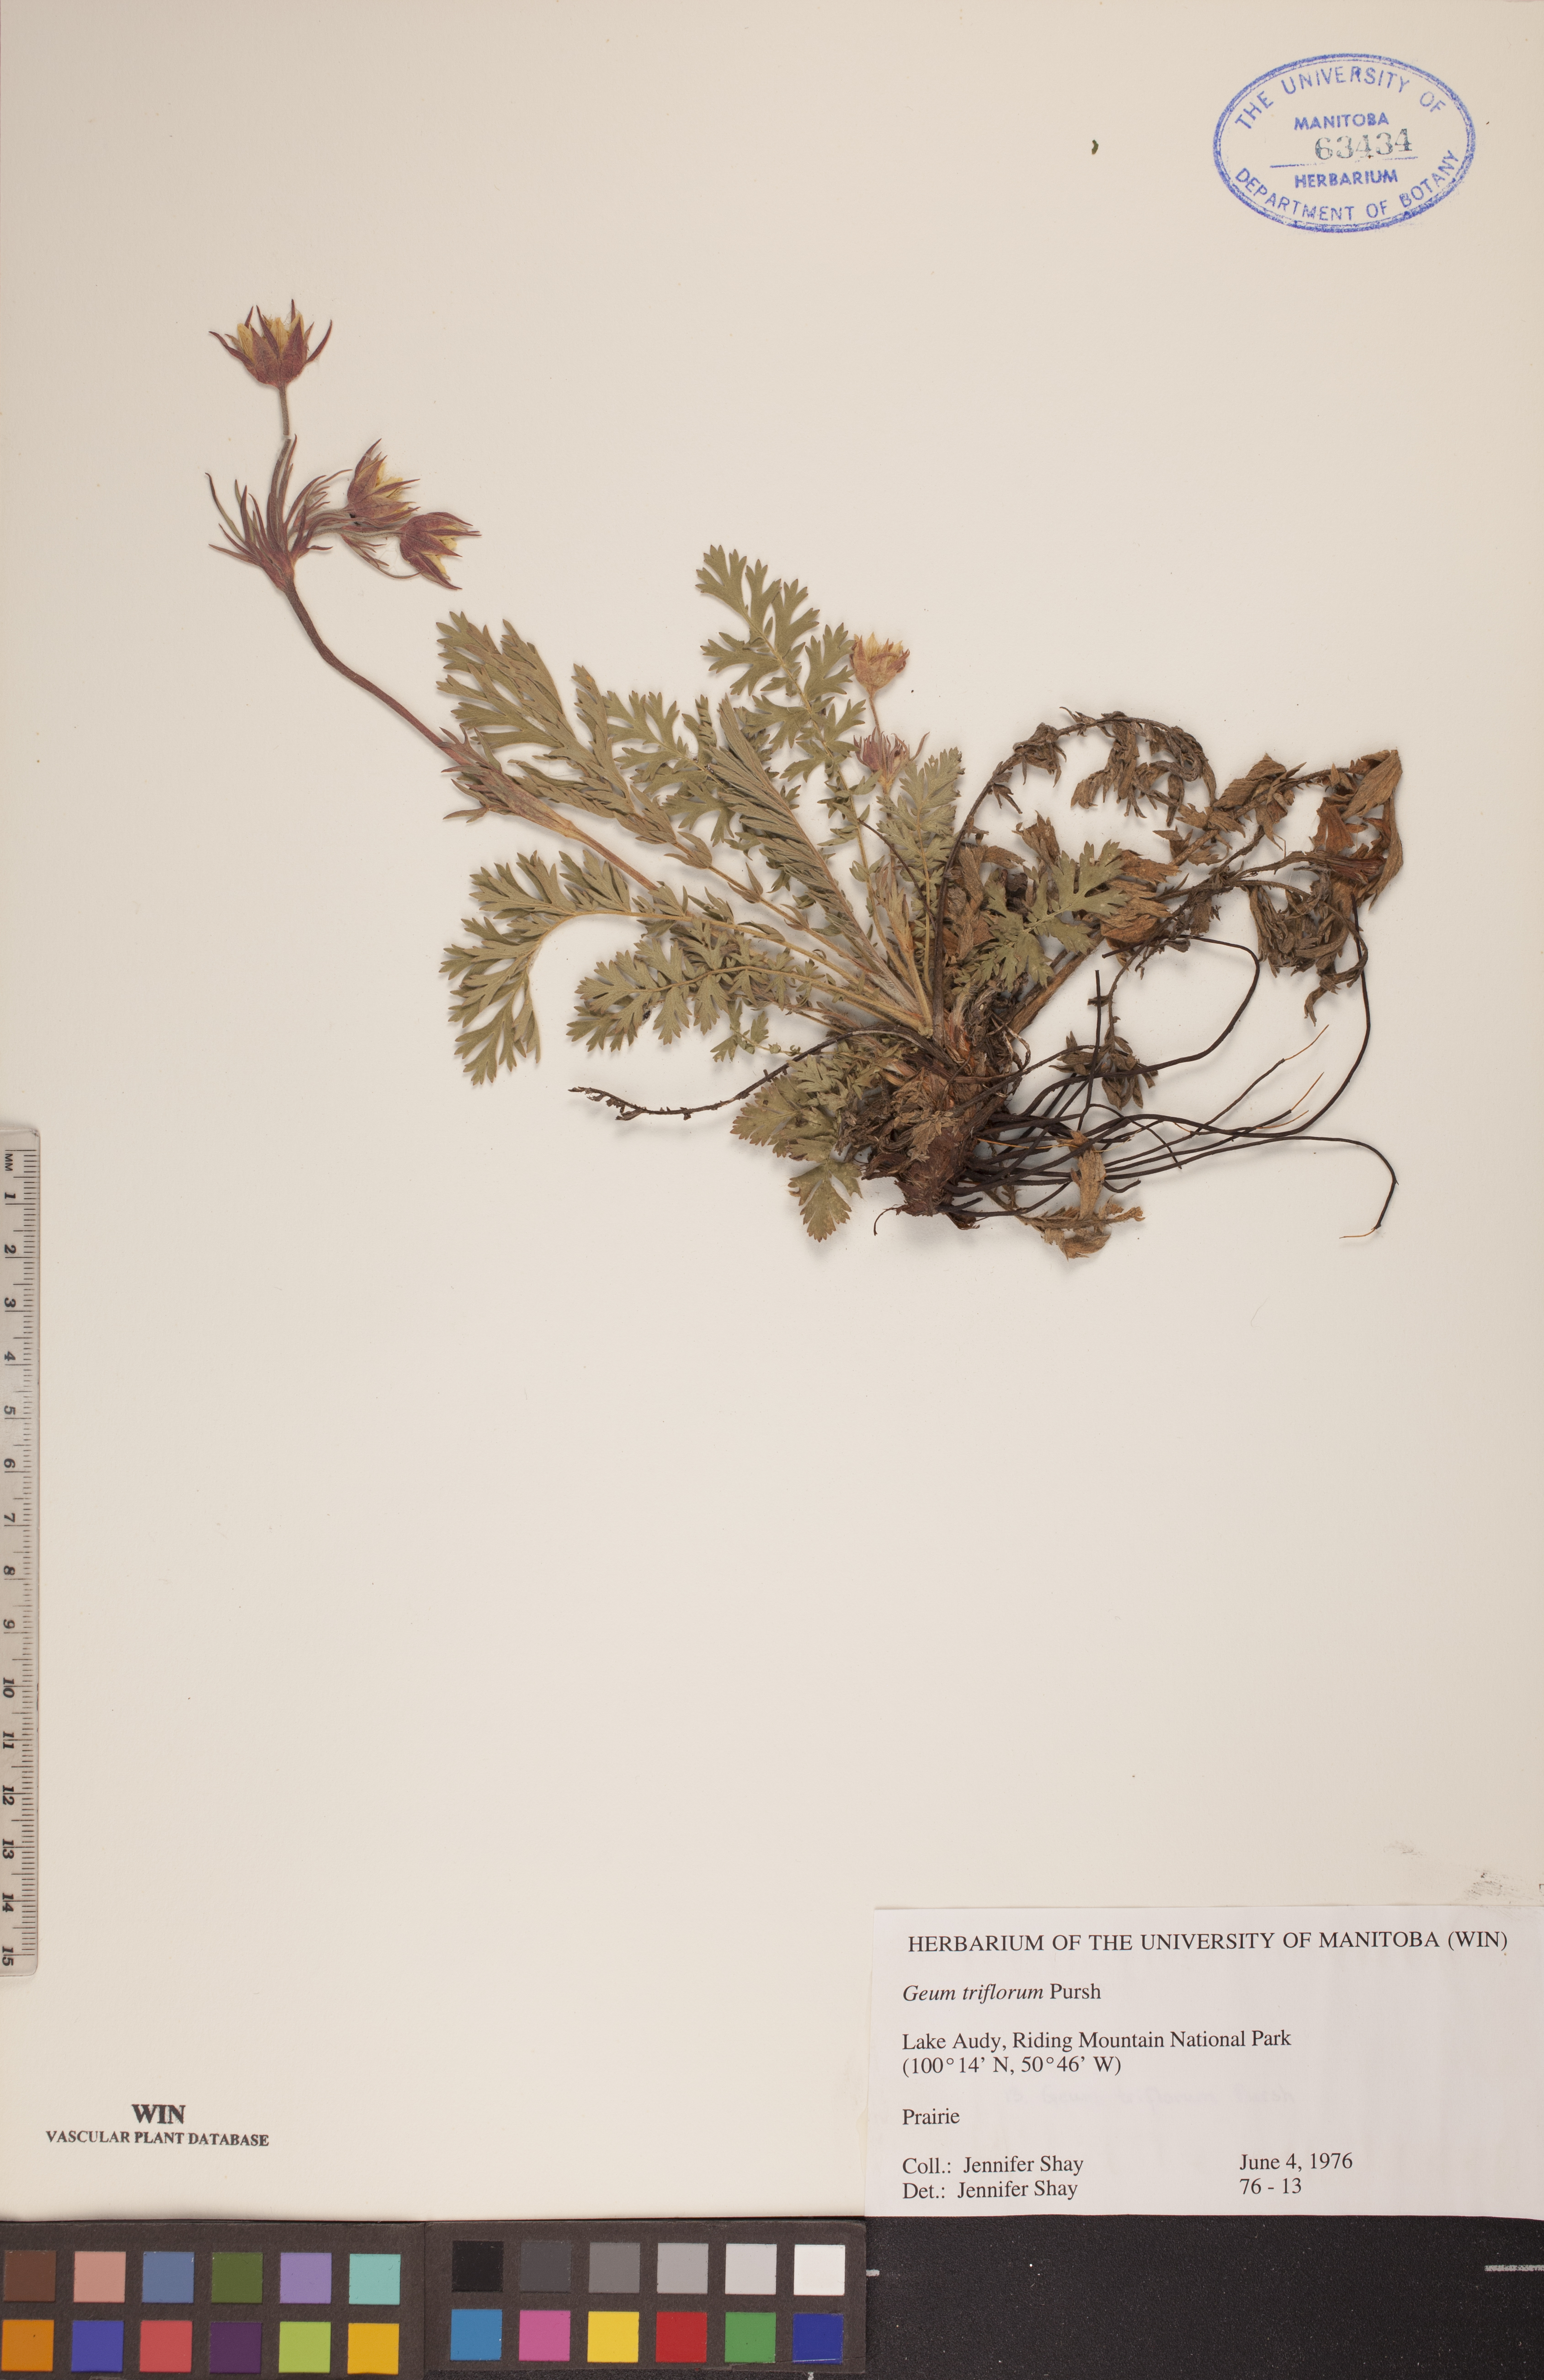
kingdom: Plantae
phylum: Tracheophyta
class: Magnoliopsida
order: Rosales
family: Rosaceae
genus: Geum
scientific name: Geum triflorum
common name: Old man's whiskers
